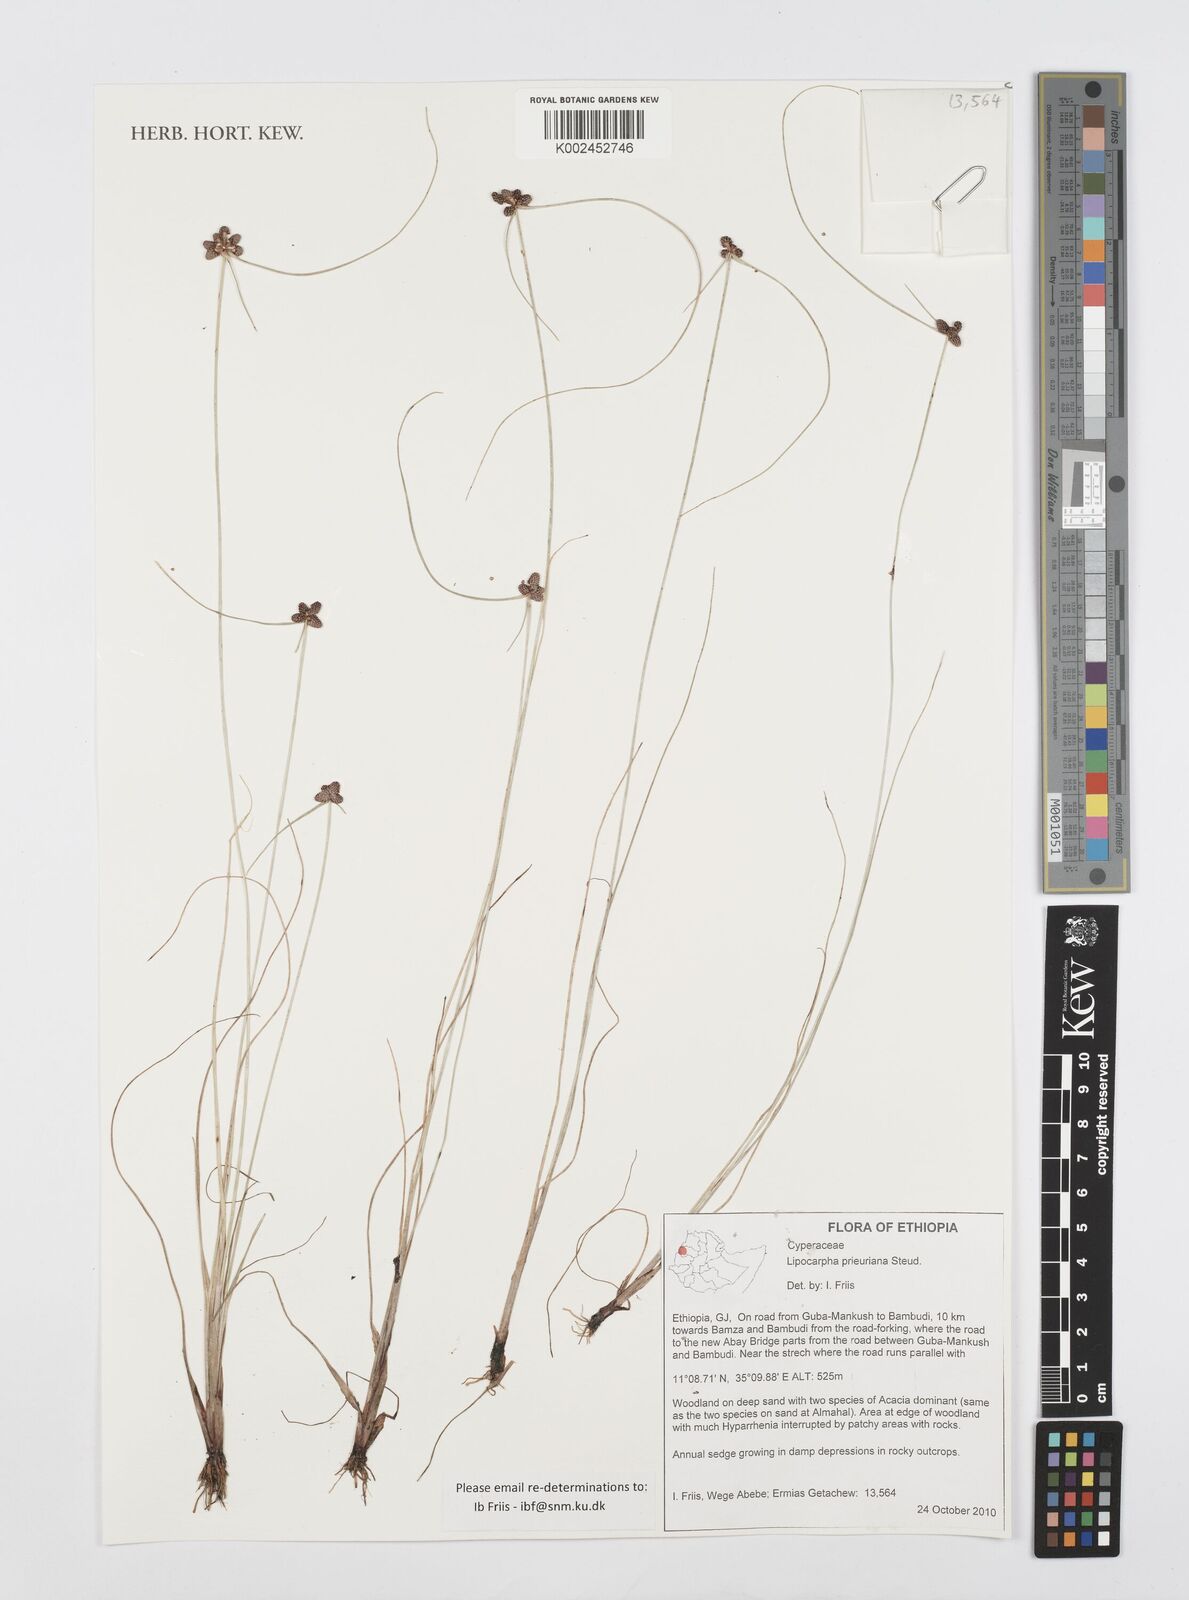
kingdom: Plantae
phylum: Tracheophyta
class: Liliopsida
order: Poales
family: Cyperaceae
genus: Cyperus
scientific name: Cyperus prieurianus
